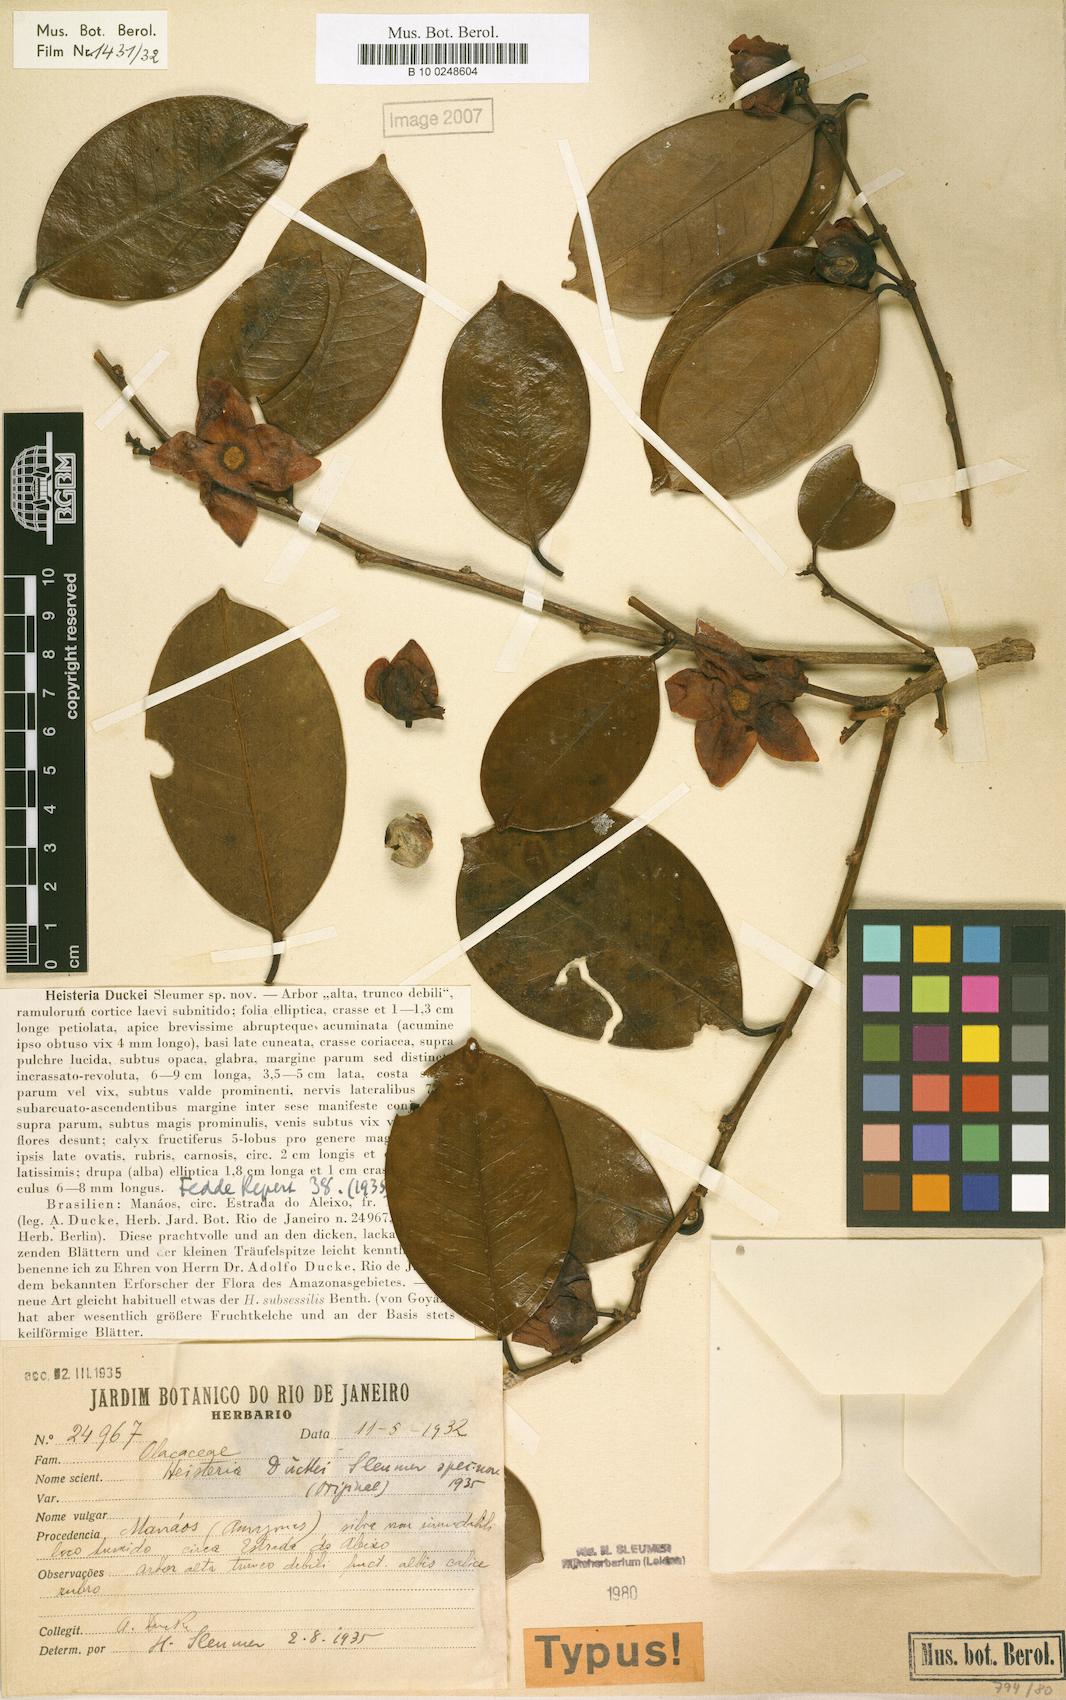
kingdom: Plantae
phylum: Tracheophyta
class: Magnoliopsida
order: Santalales
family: Erythropalaceae
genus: Heisteria
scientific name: Heisteria duckei
